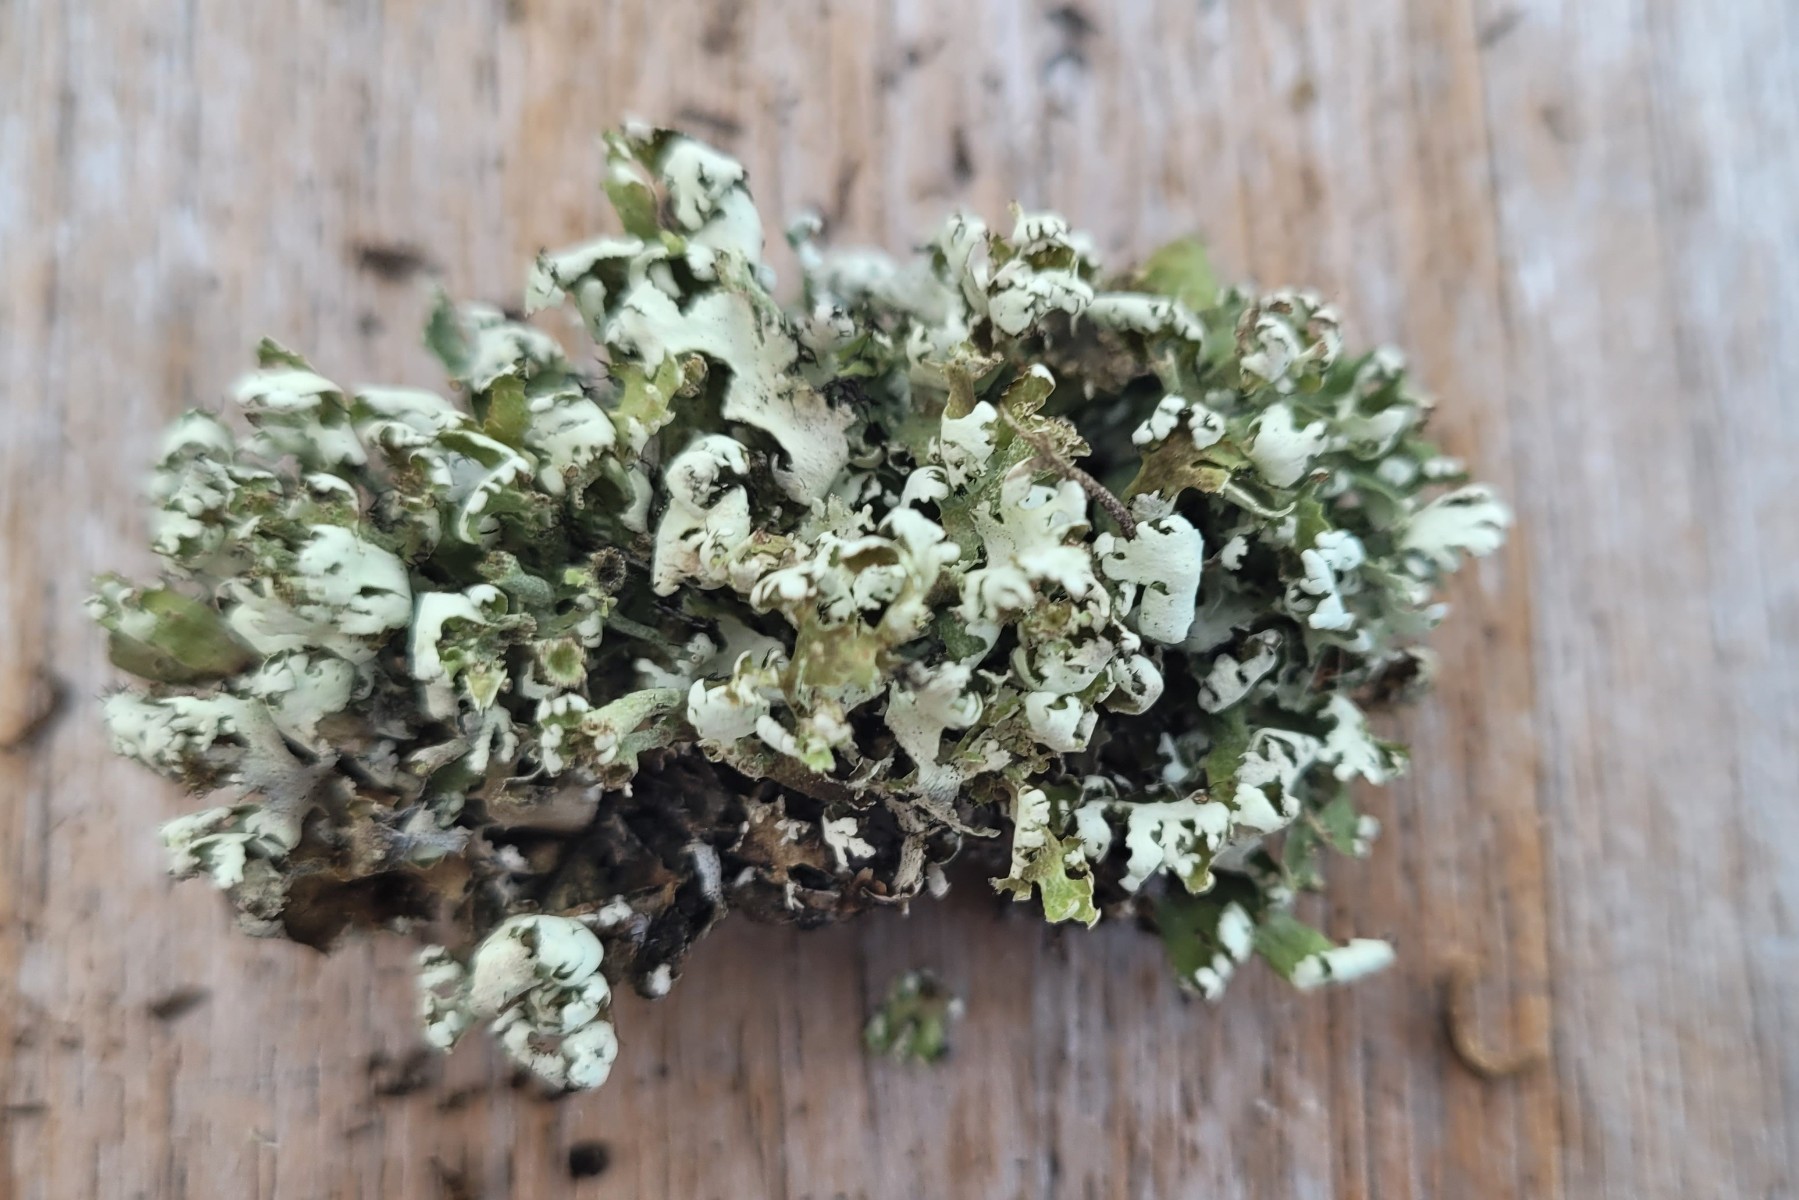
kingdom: Fungi
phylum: Ascomycota
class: Lecanoromycetes
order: Lecanorales
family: Cladoniaceae
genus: Cladonia
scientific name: Cladonia foliacea
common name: fliget bægerlav
